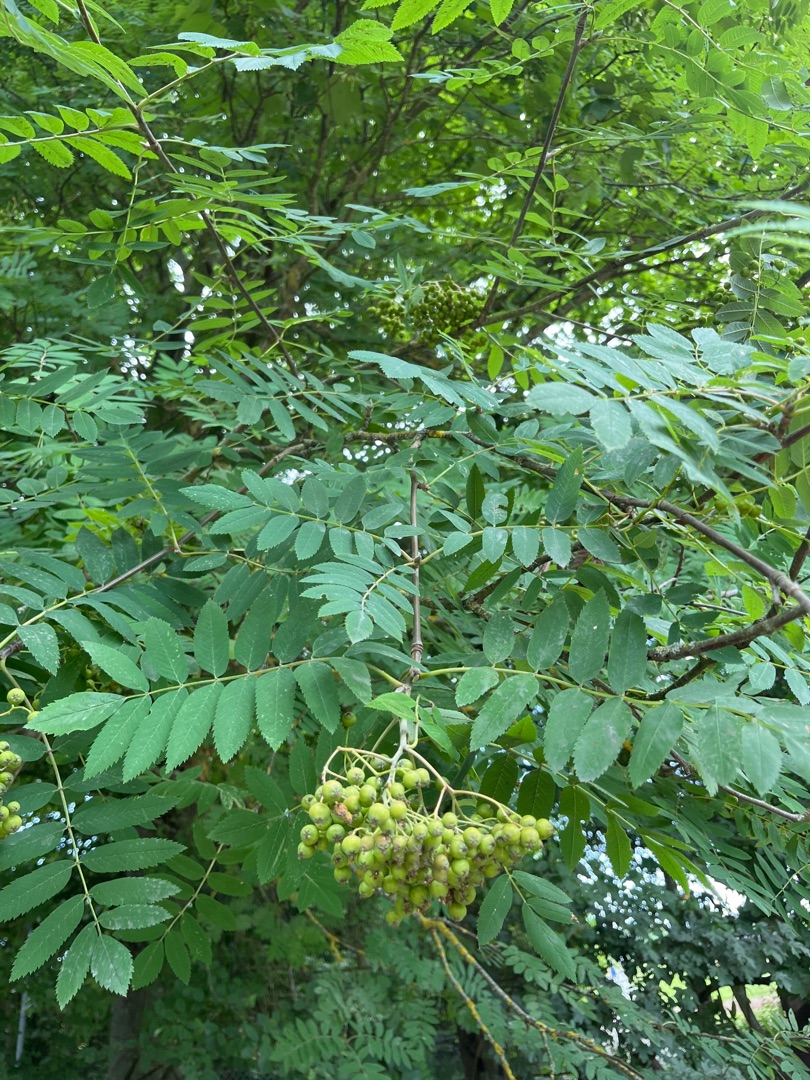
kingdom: Plantae
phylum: Tracheophyta
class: Magnoliopsida
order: Rosales
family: Rosaceae
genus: Sorbus
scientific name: Sorbus aucuparia
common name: Almindelig røn
